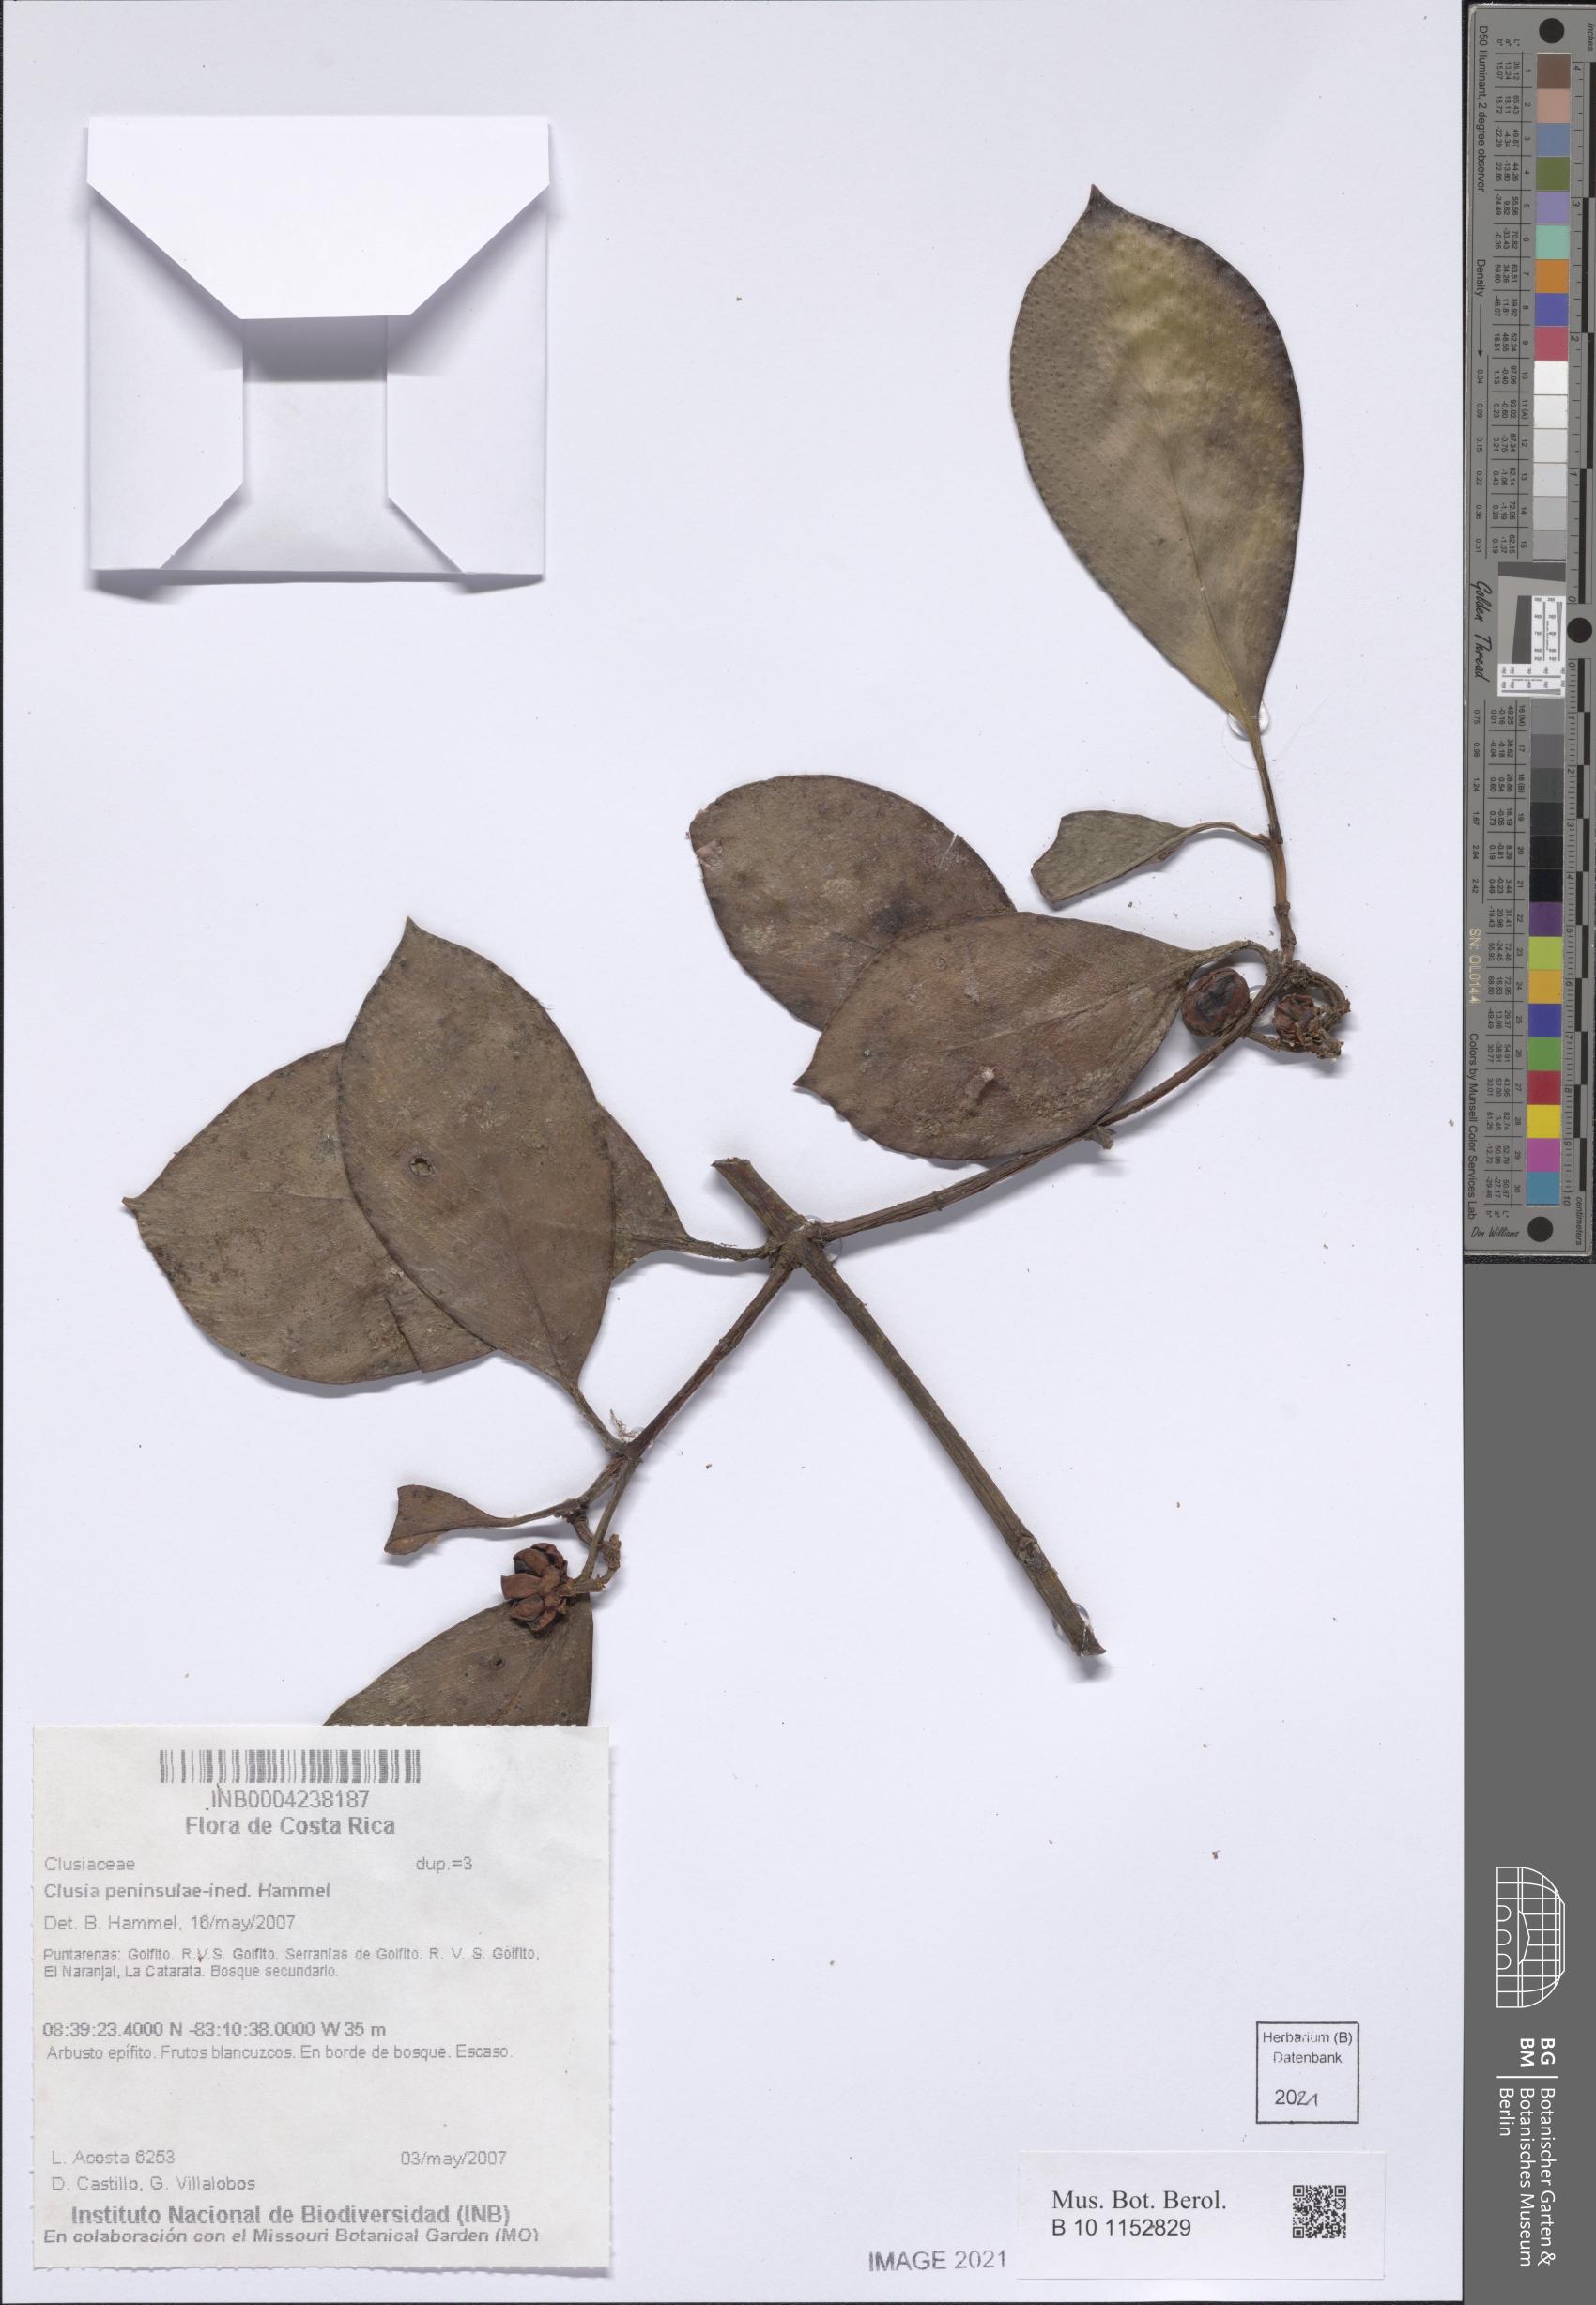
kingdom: Plantae
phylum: Tracheophyta
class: Magnoliopsida
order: Malpighiales
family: Clusiaceae
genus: Clusia
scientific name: Clusia
